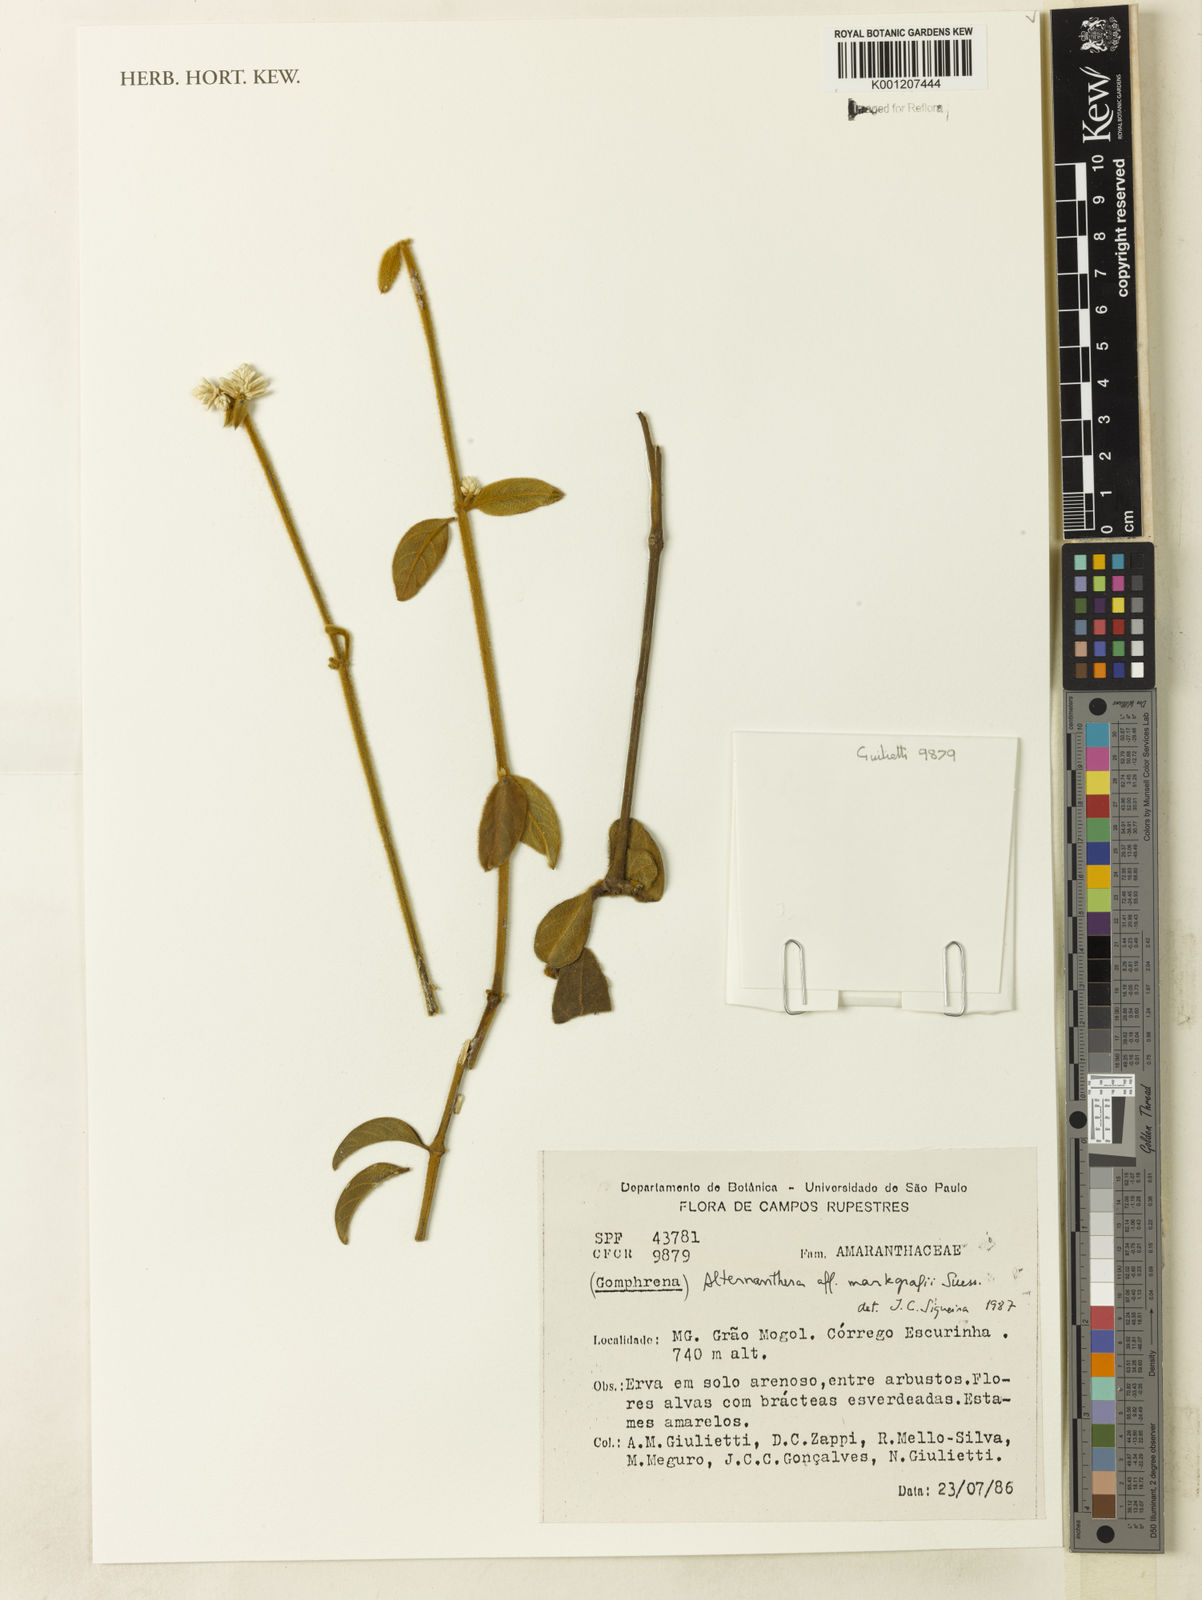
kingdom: Plantae
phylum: Tracheophyta
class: Magnoliopsida
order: Caryophyllales
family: Amaranthaceae
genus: Alternanthera
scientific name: Alternanthera markgrafii
